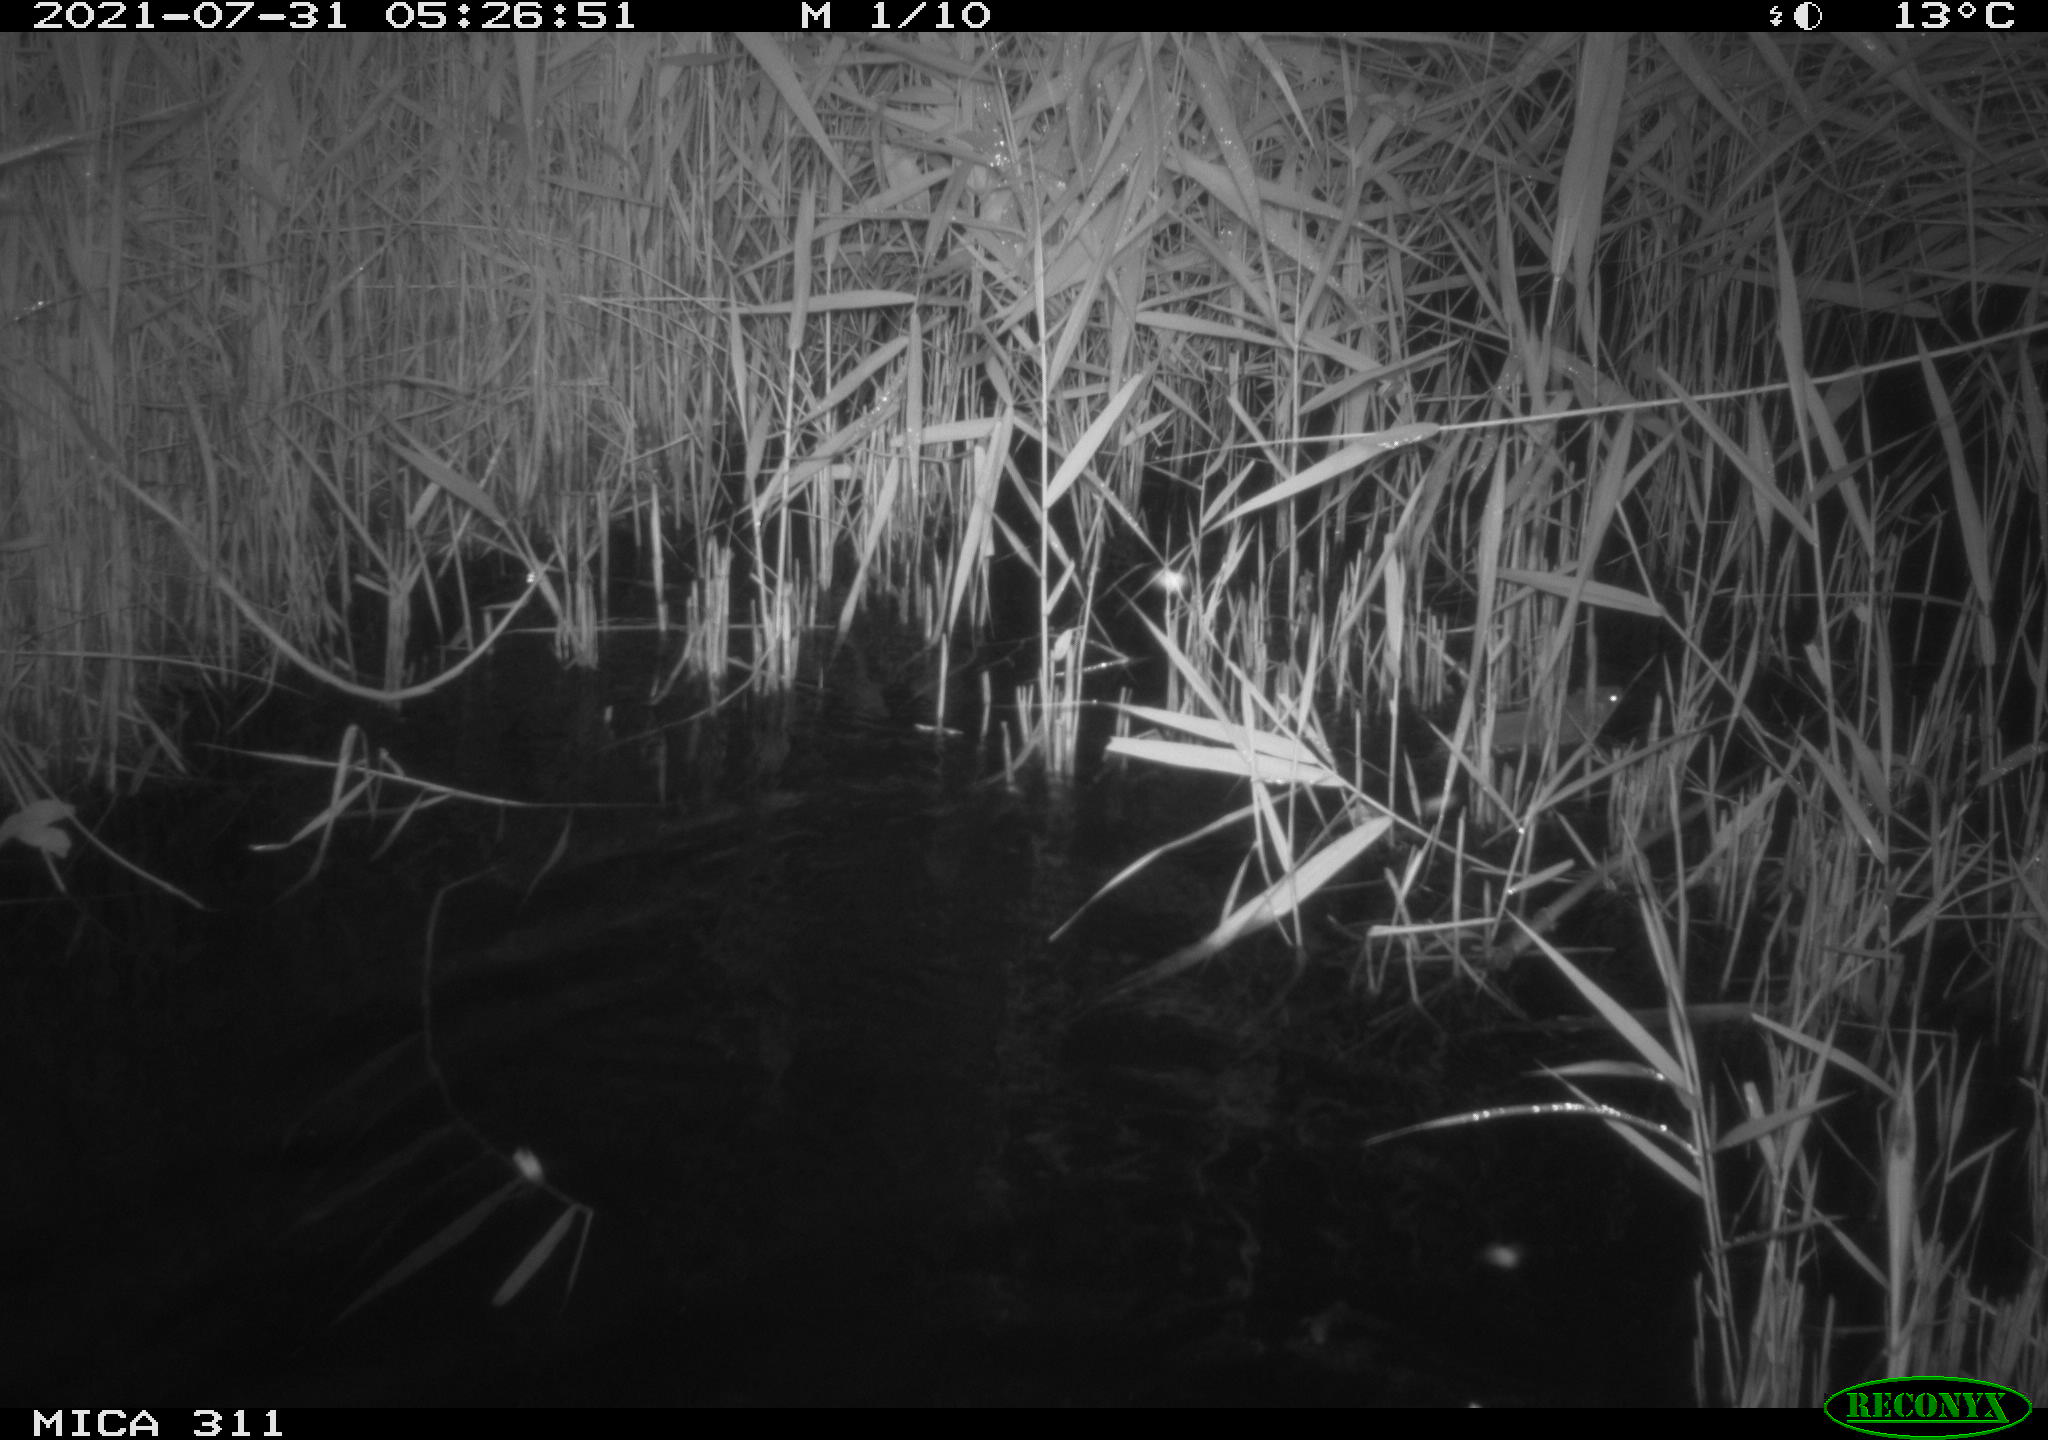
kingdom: Animalia
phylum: Chordata
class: Mammalia
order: Rodentia
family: Muridae
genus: Rattus
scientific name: Rattus norvegicus
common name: Brown rat
